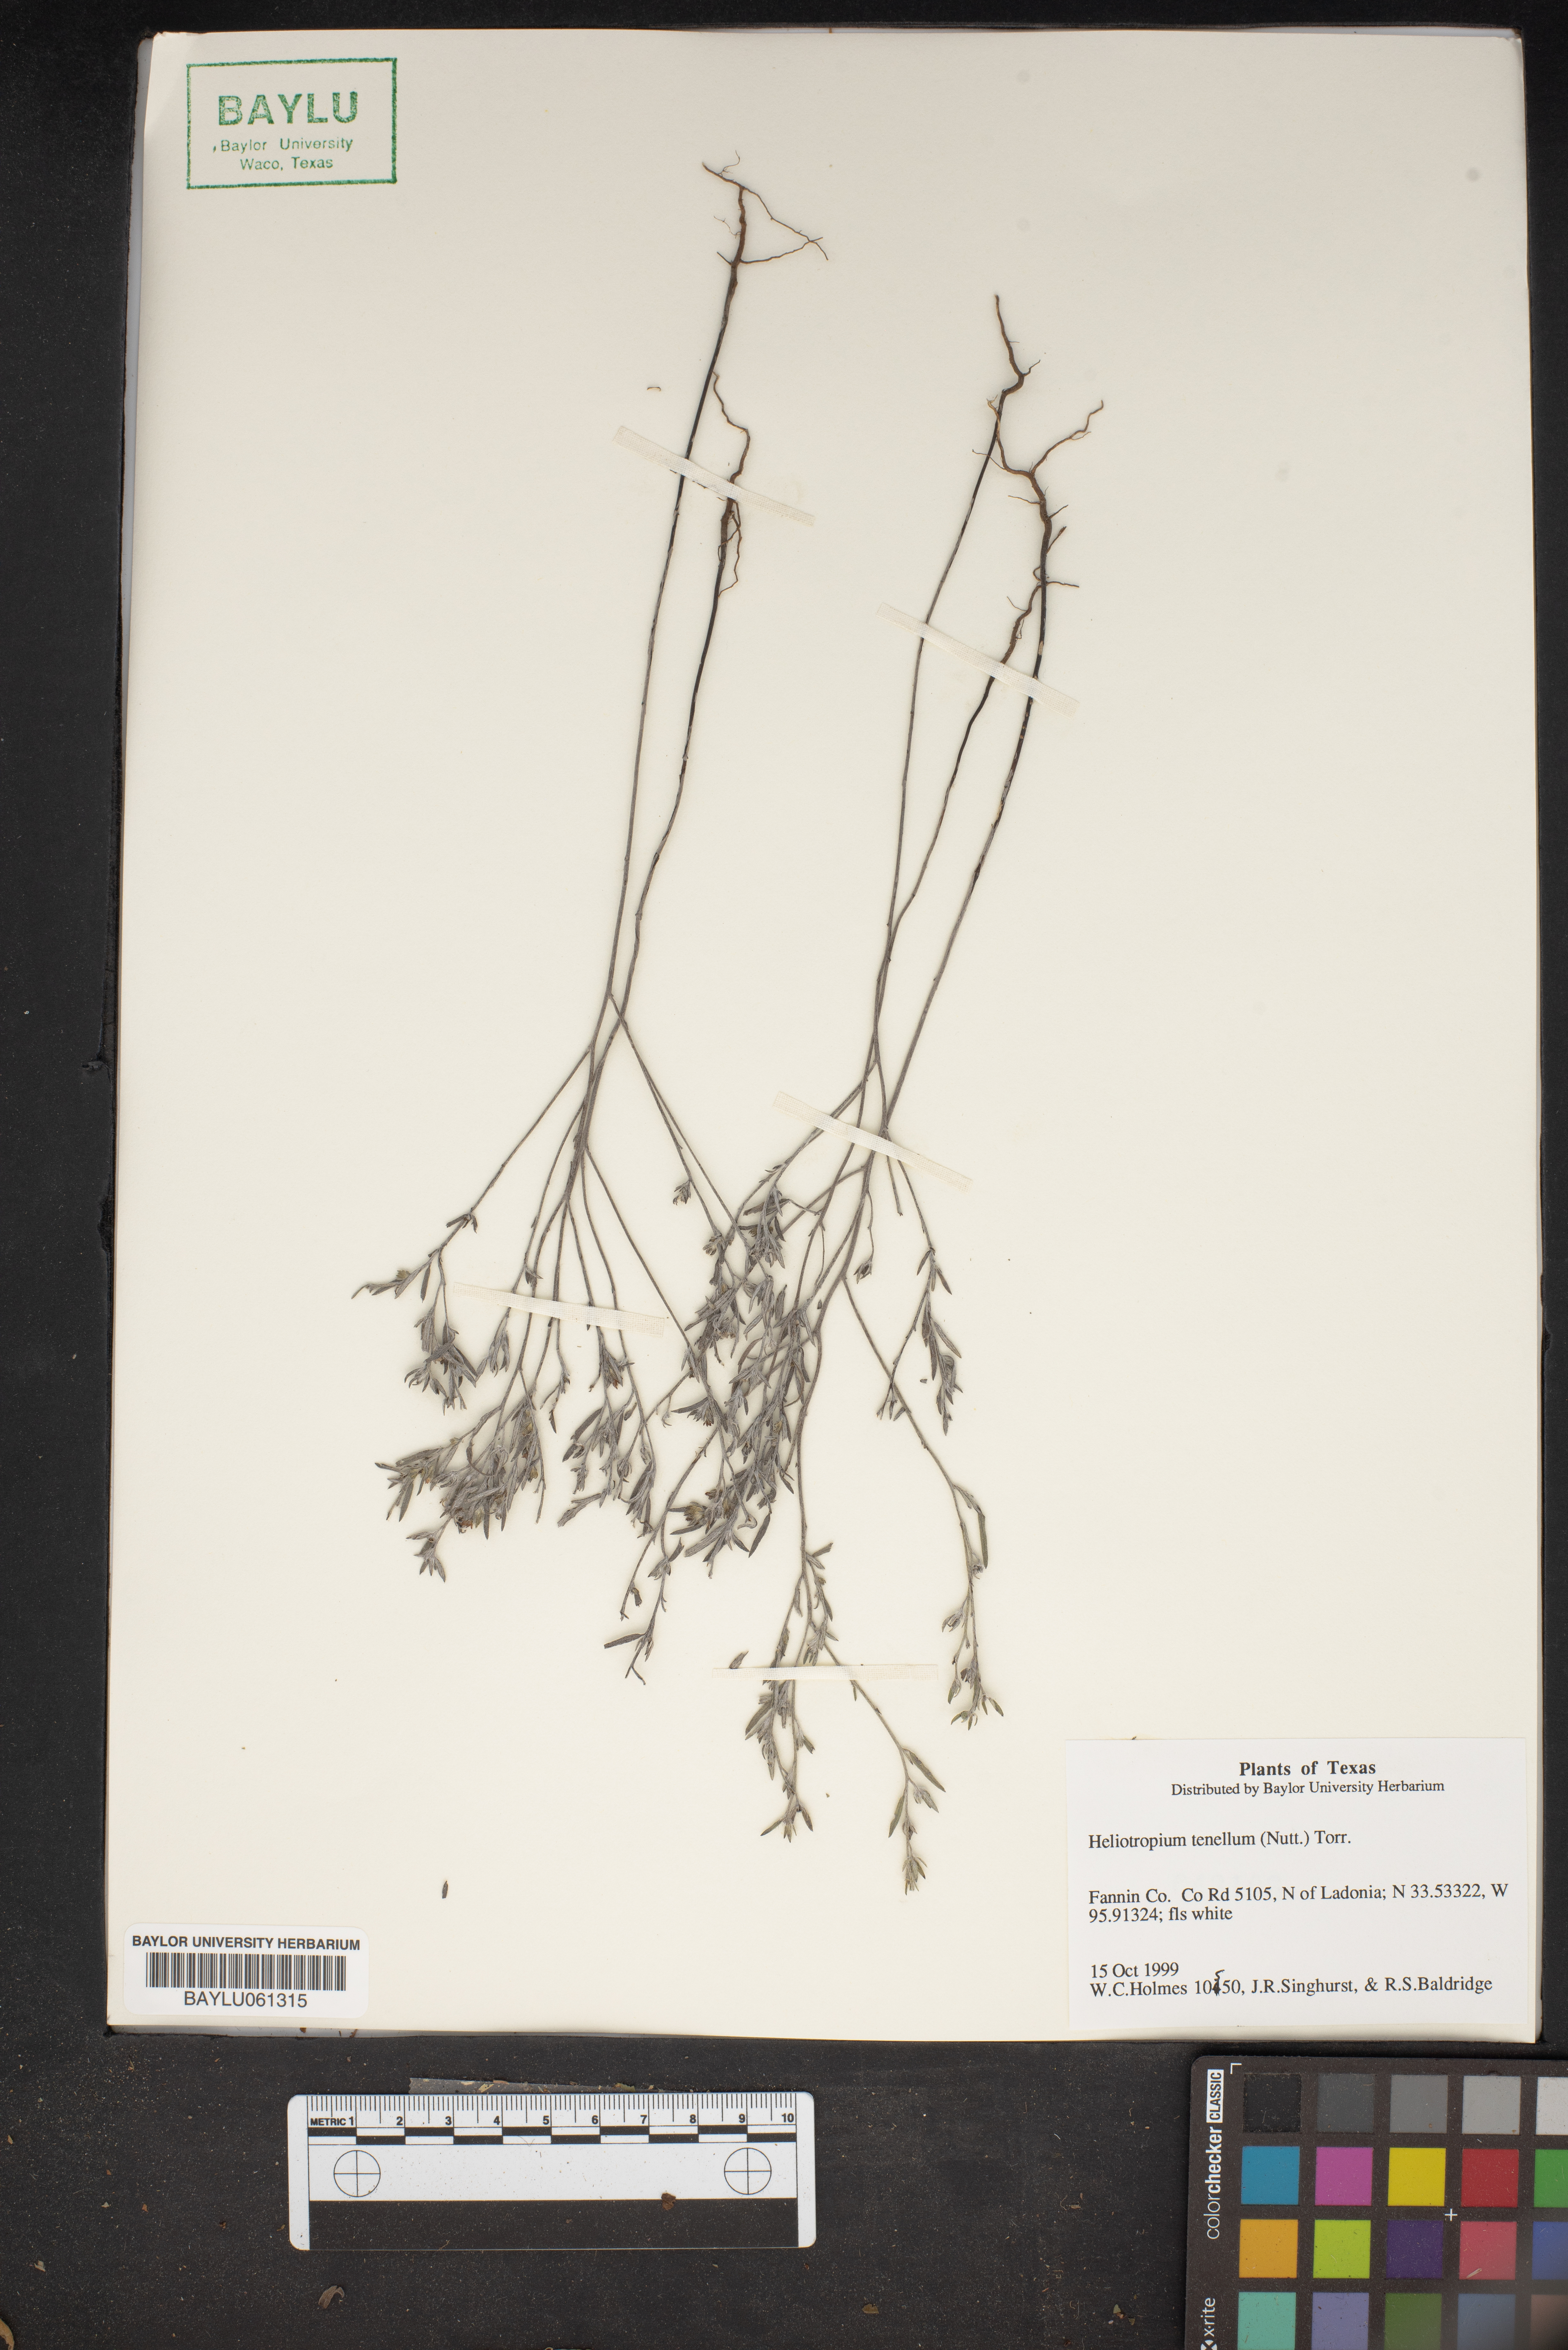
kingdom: Plantae
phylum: Tracheophyta
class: Magnoliopsida
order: Boraginales
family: Heliotropiaceae
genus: Euploca
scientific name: Euploca tenella
